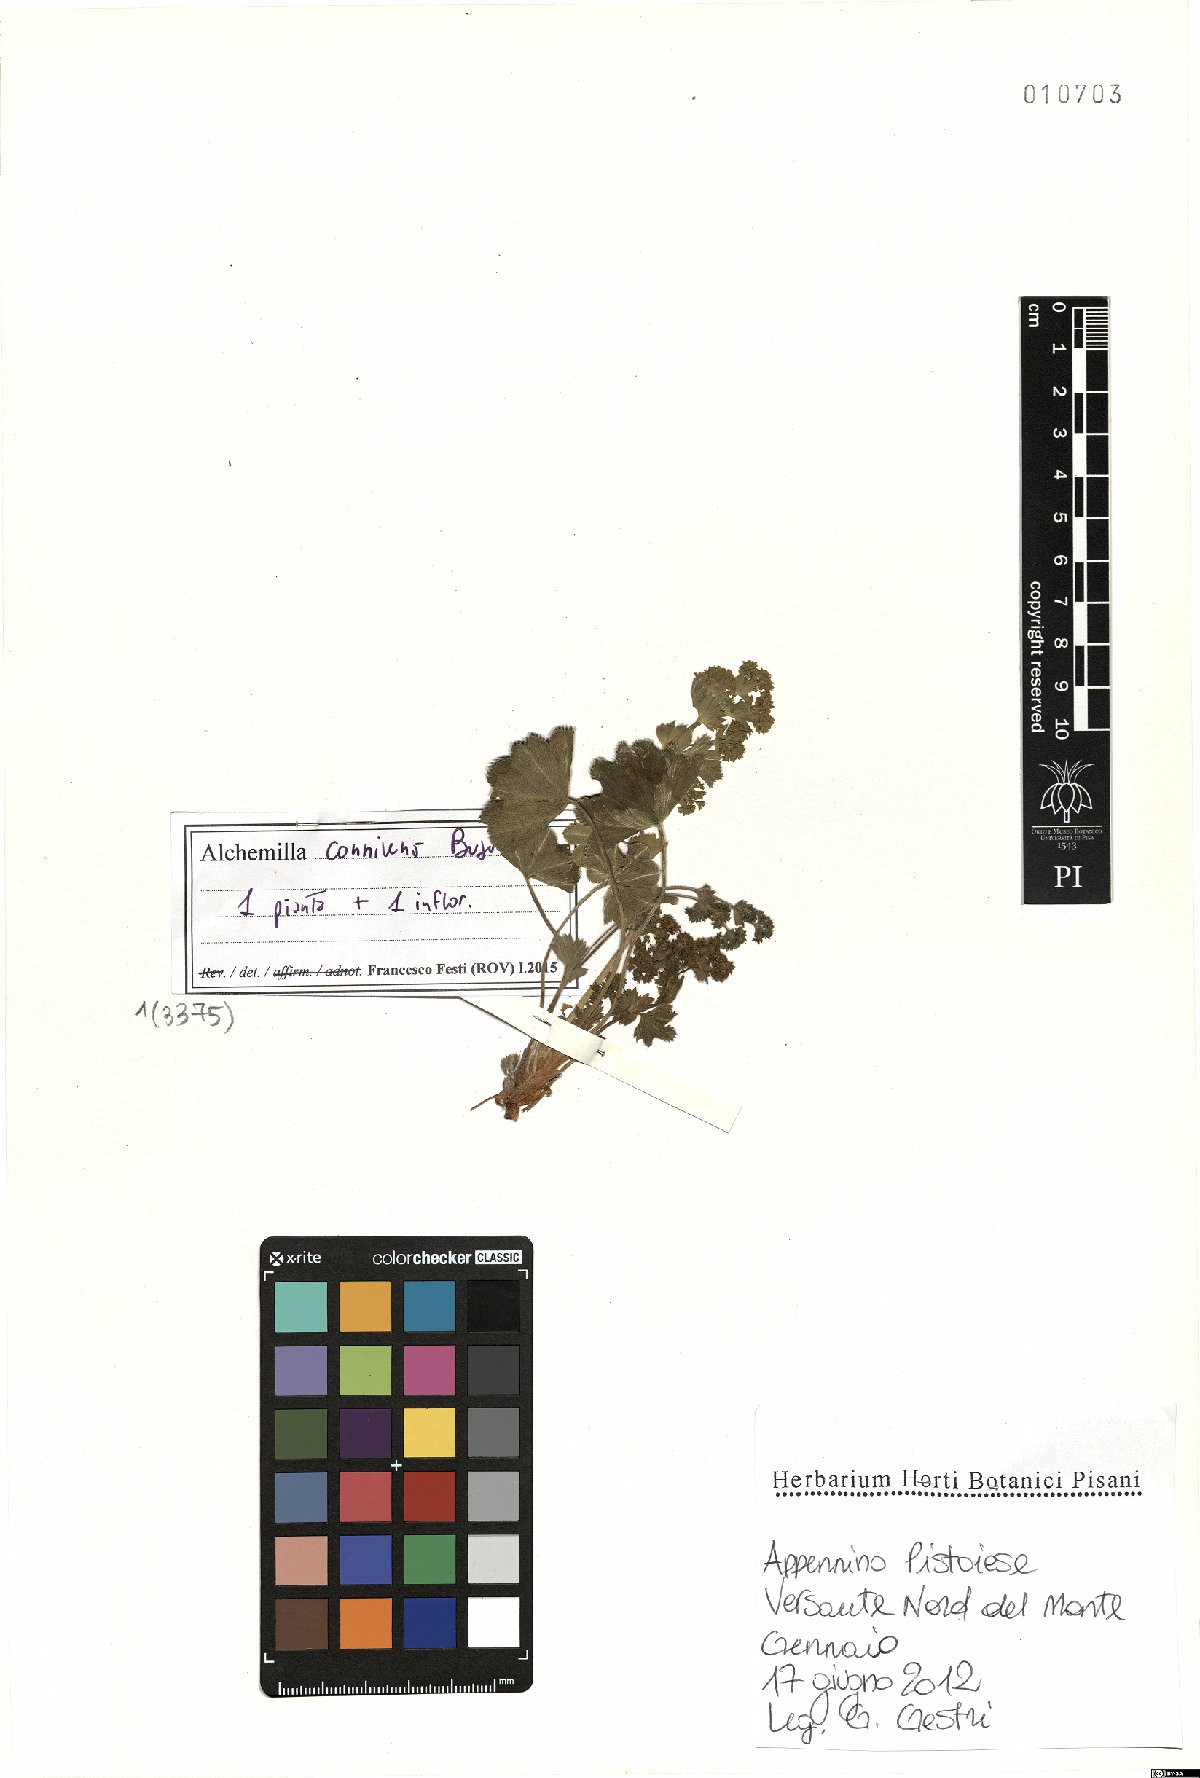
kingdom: Plantae
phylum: Tracheophyta
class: Magnoliopsida
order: Rosales
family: Rosaceae
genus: Alchemilla
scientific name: Alchemilla connivens
